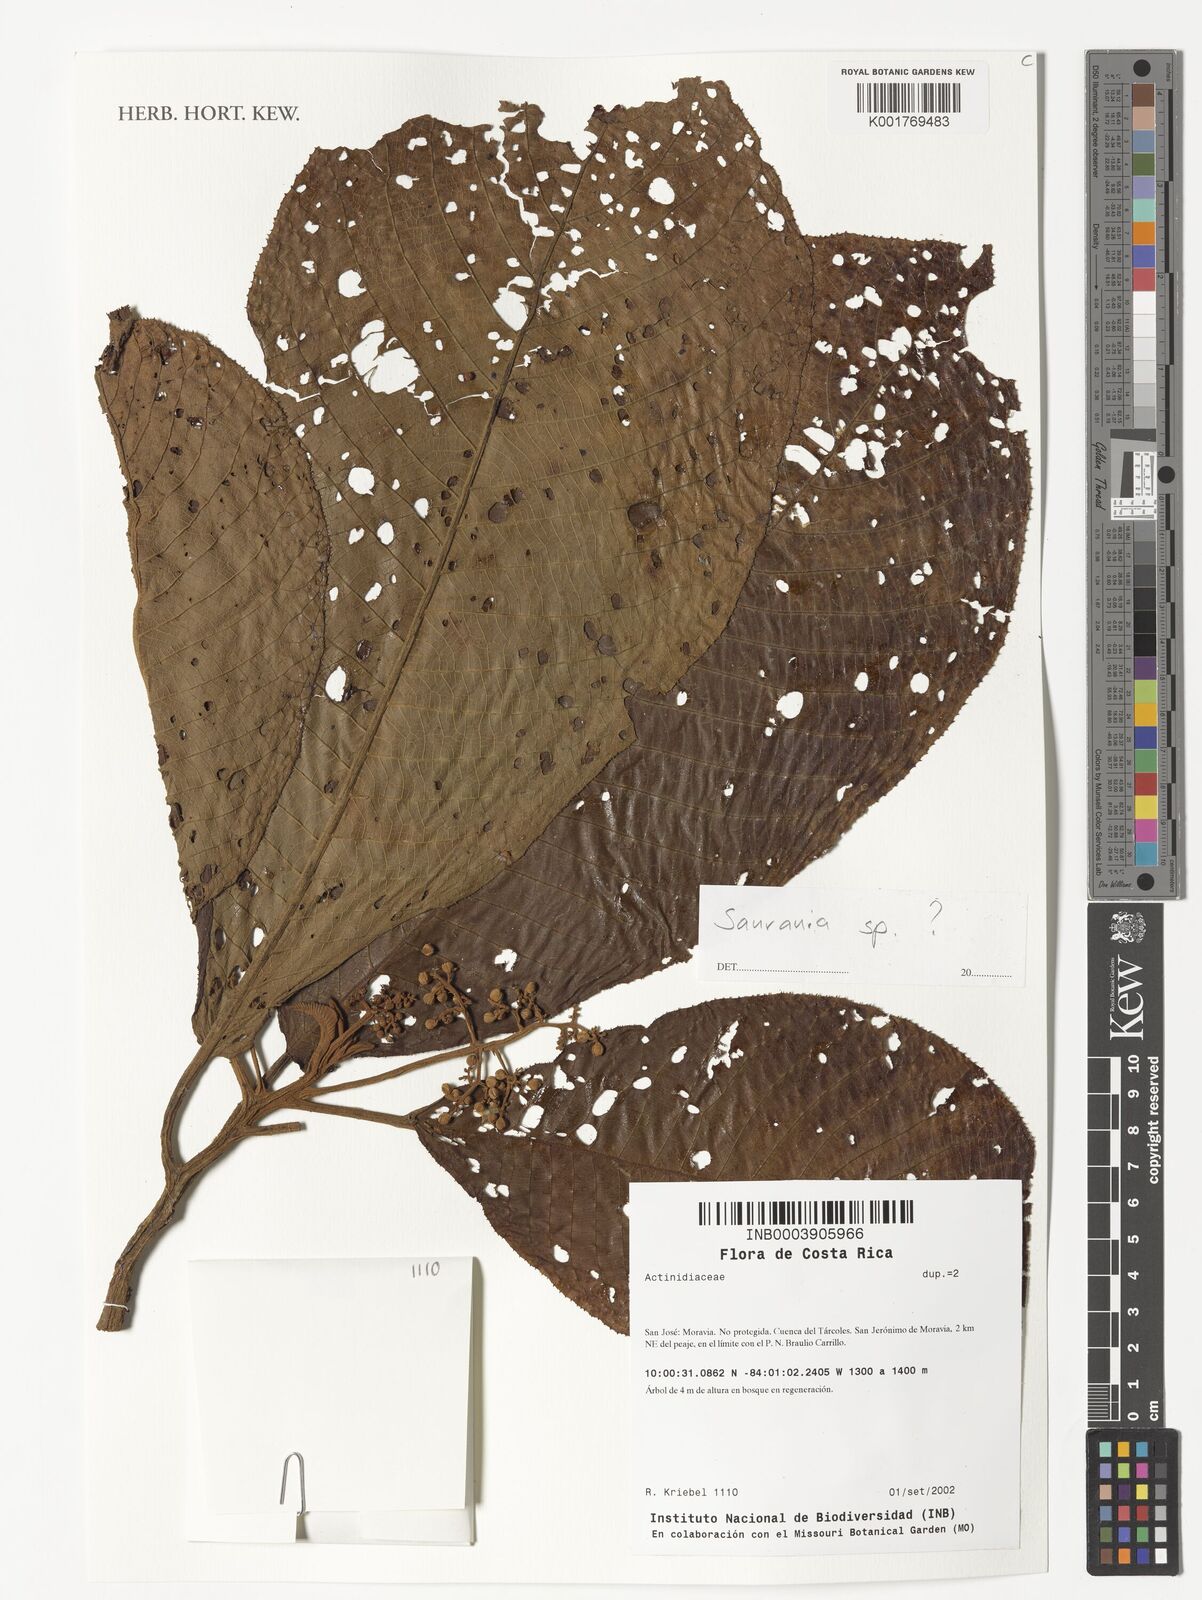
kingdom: Plantae
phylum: Tracheophyta
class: Magnoliopsida
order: Ericales
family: Actinidiaceae
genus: Saurauia
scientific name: Saurauia
